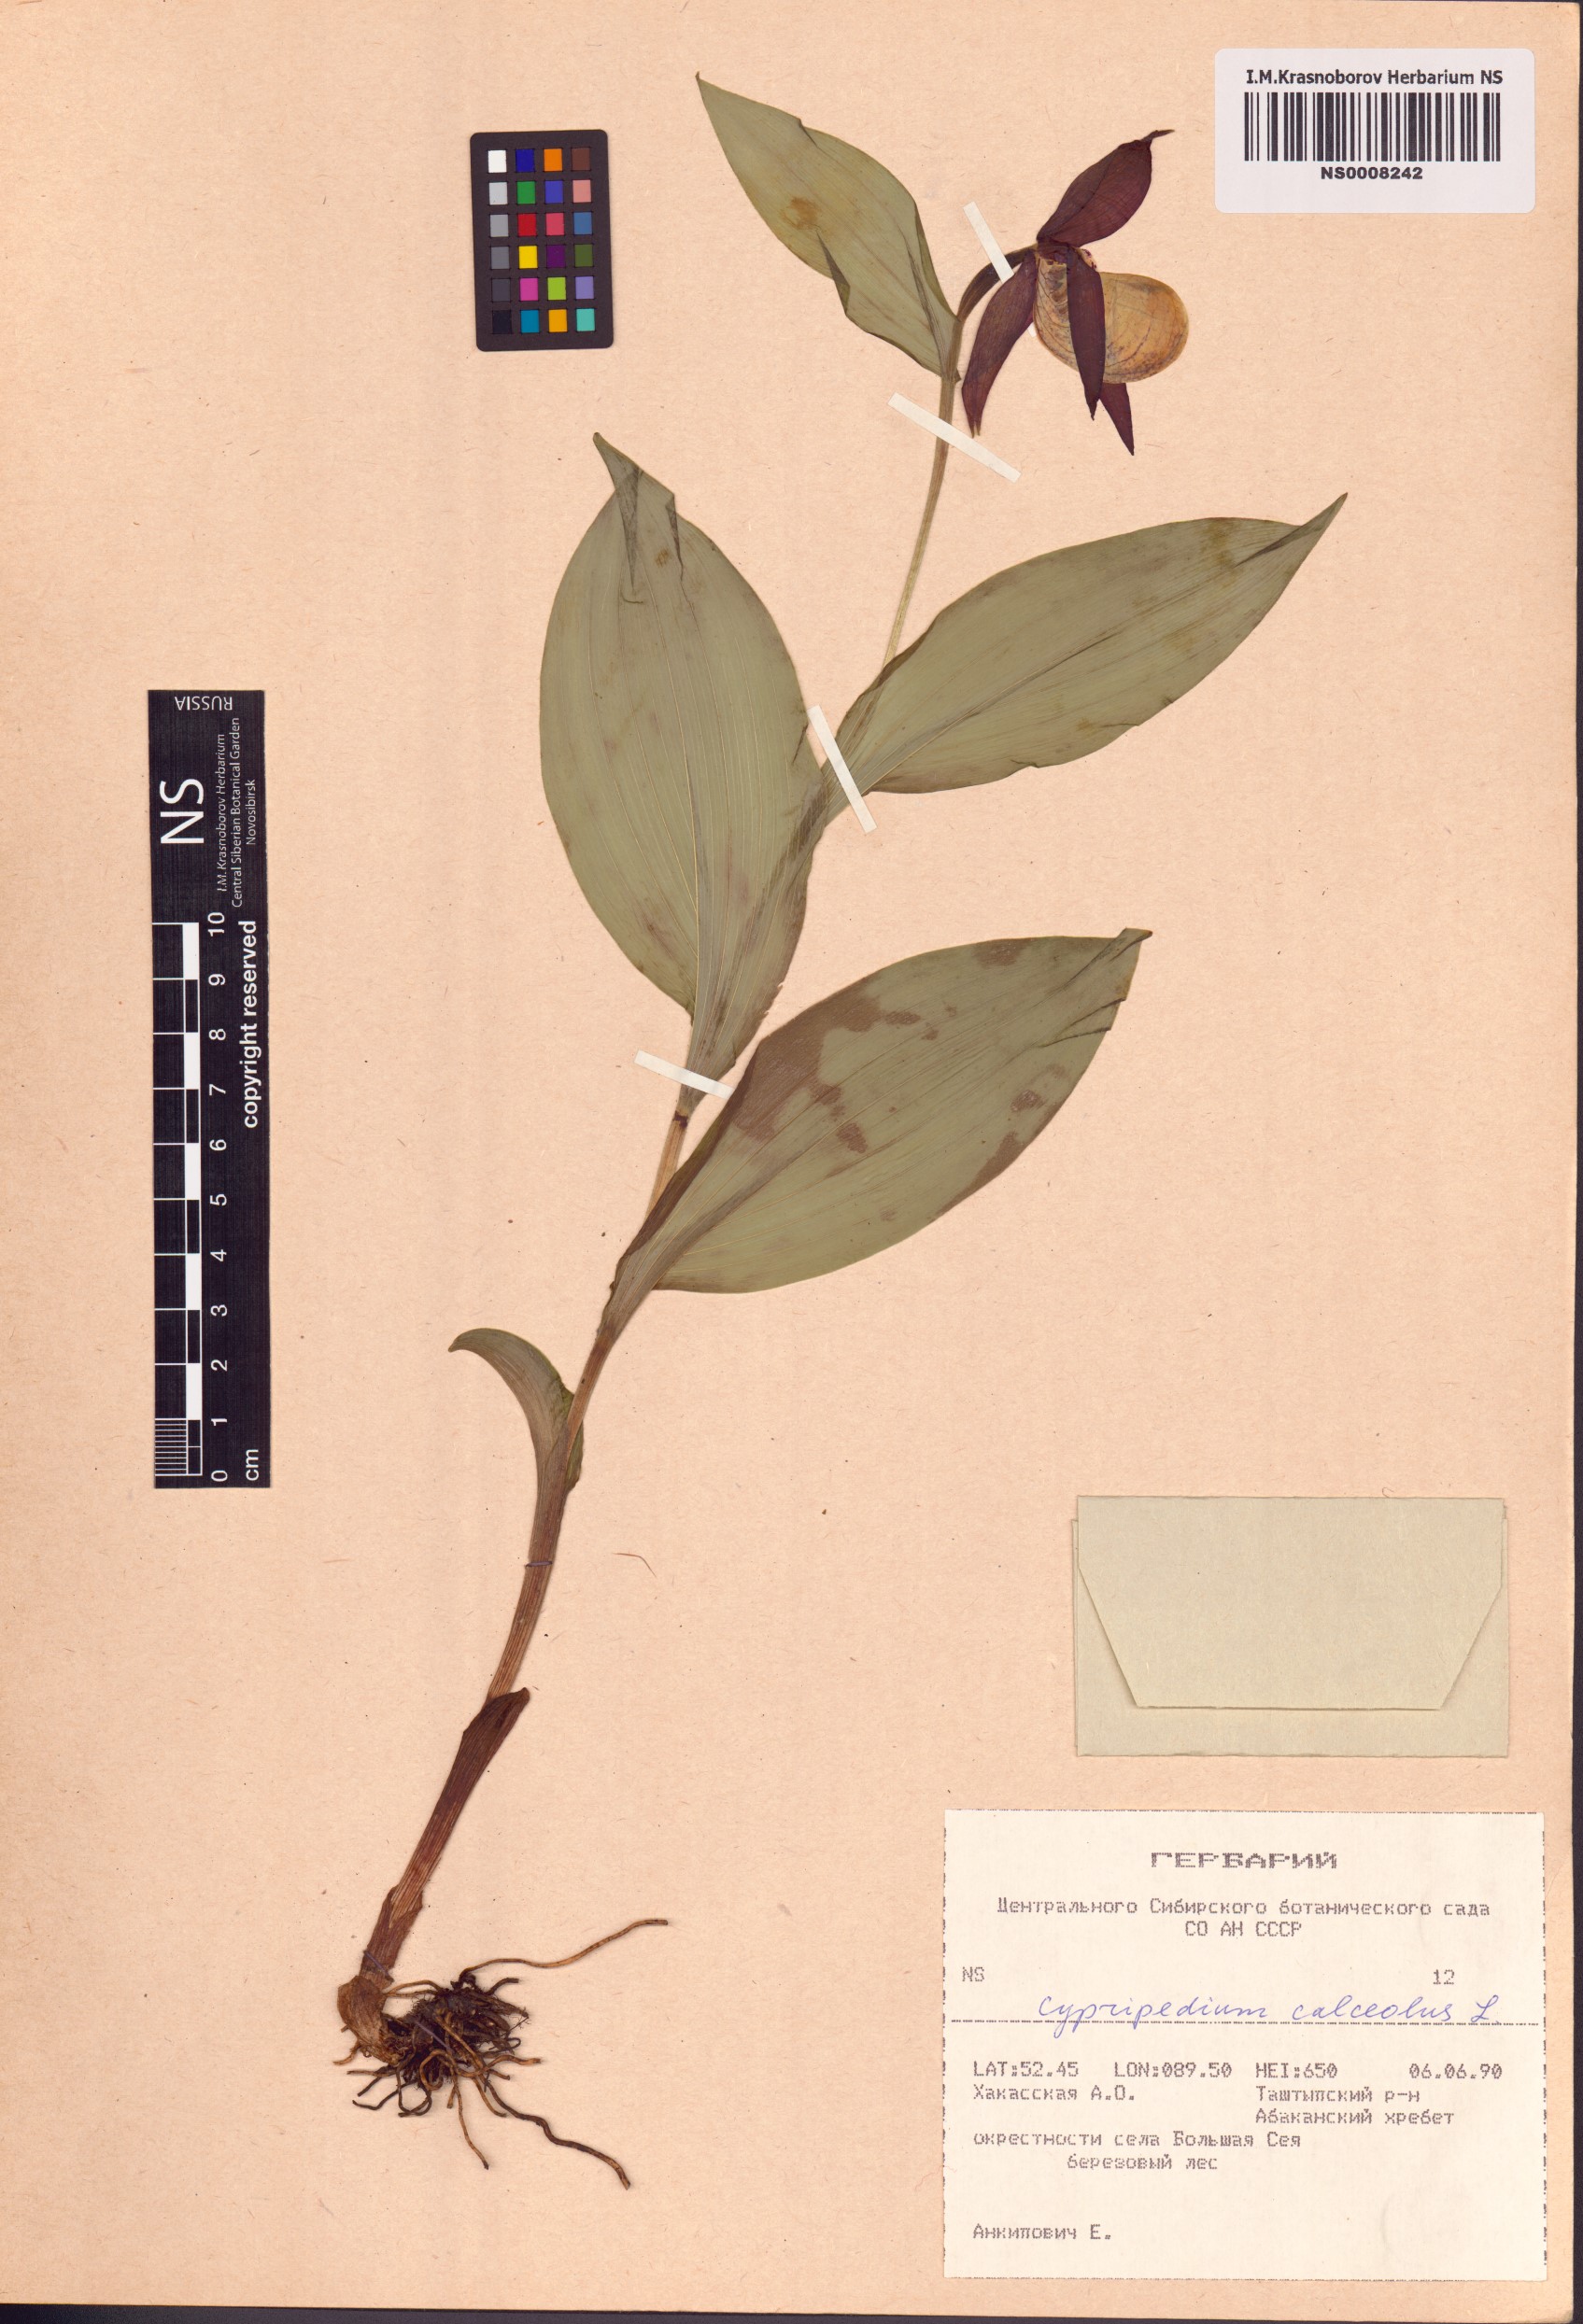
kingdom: Plantae
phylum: Tracheophyta
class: Liliopsida
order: Asparagales
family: Orchidaceae
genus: Cypripedium
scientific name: Cypripedium calceolus
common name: Lady's-slipper
